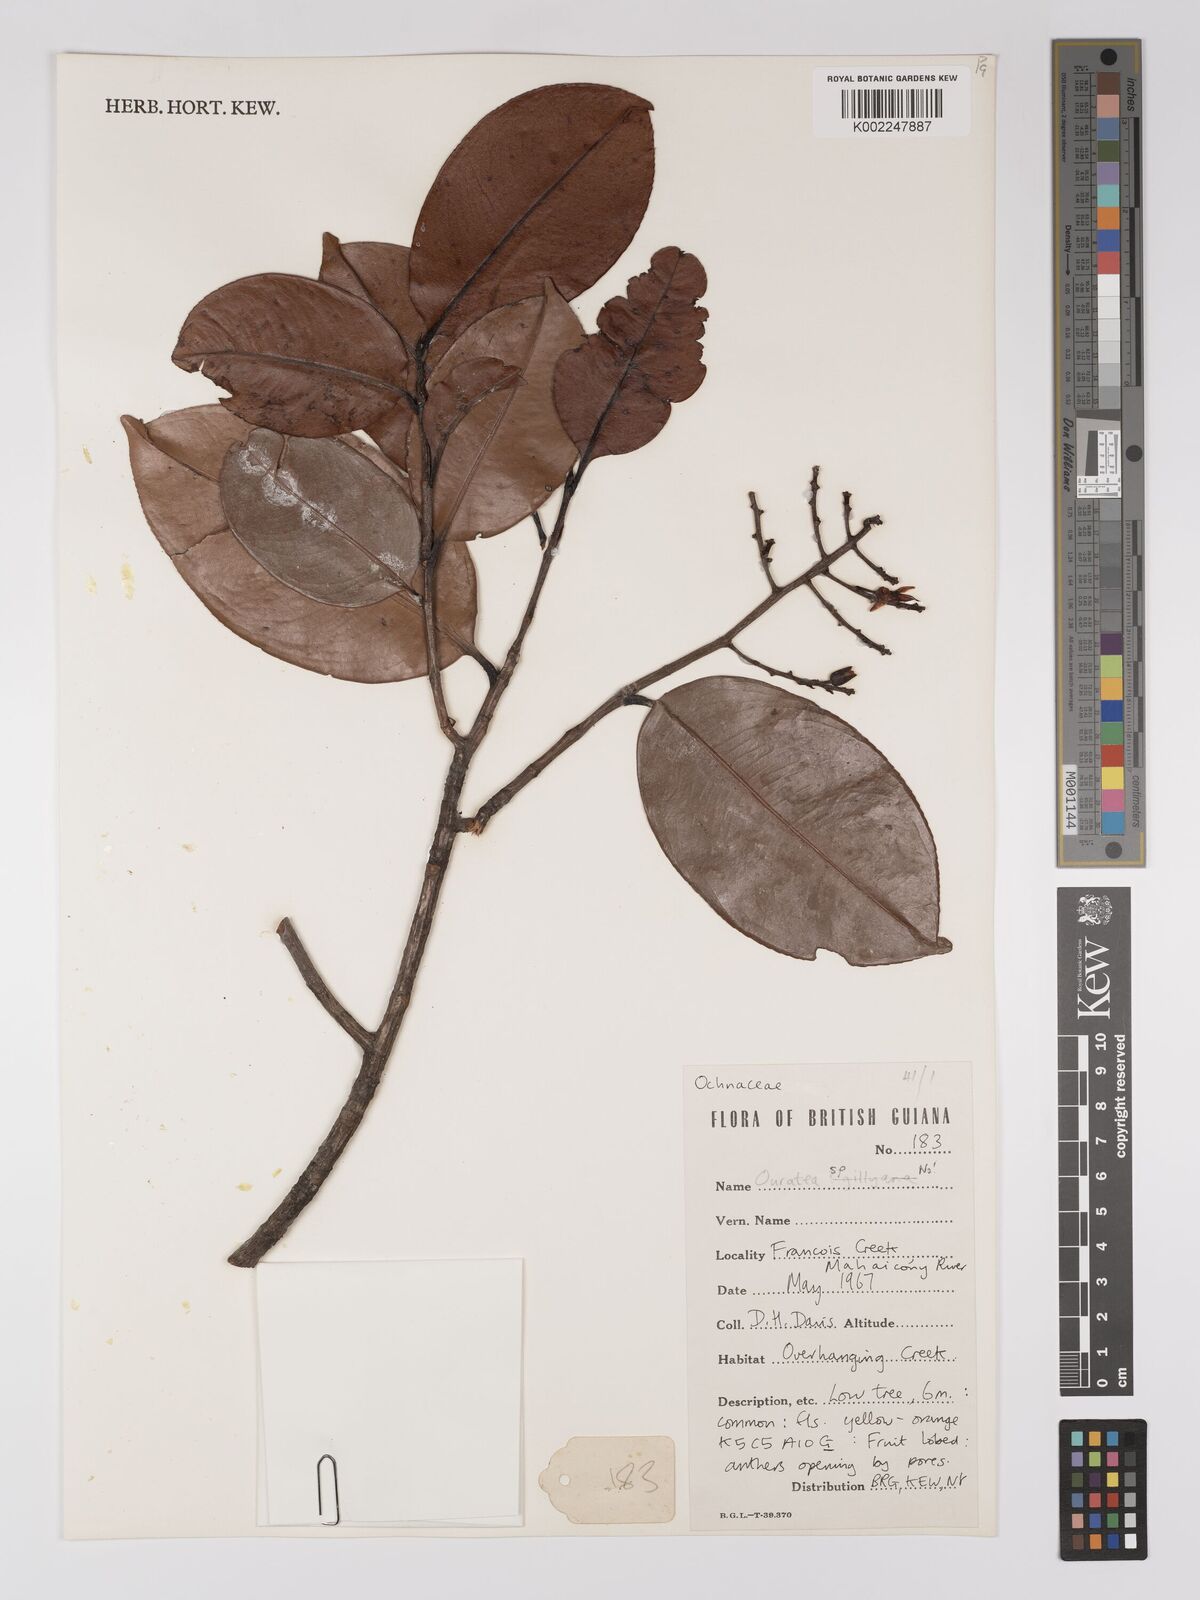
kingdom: Plantae
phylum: Tracheophyta
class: Magnoliopsida
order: Malpighiales
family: Ochnaceae
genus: Ouratea
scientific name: Ouratea longifolia
